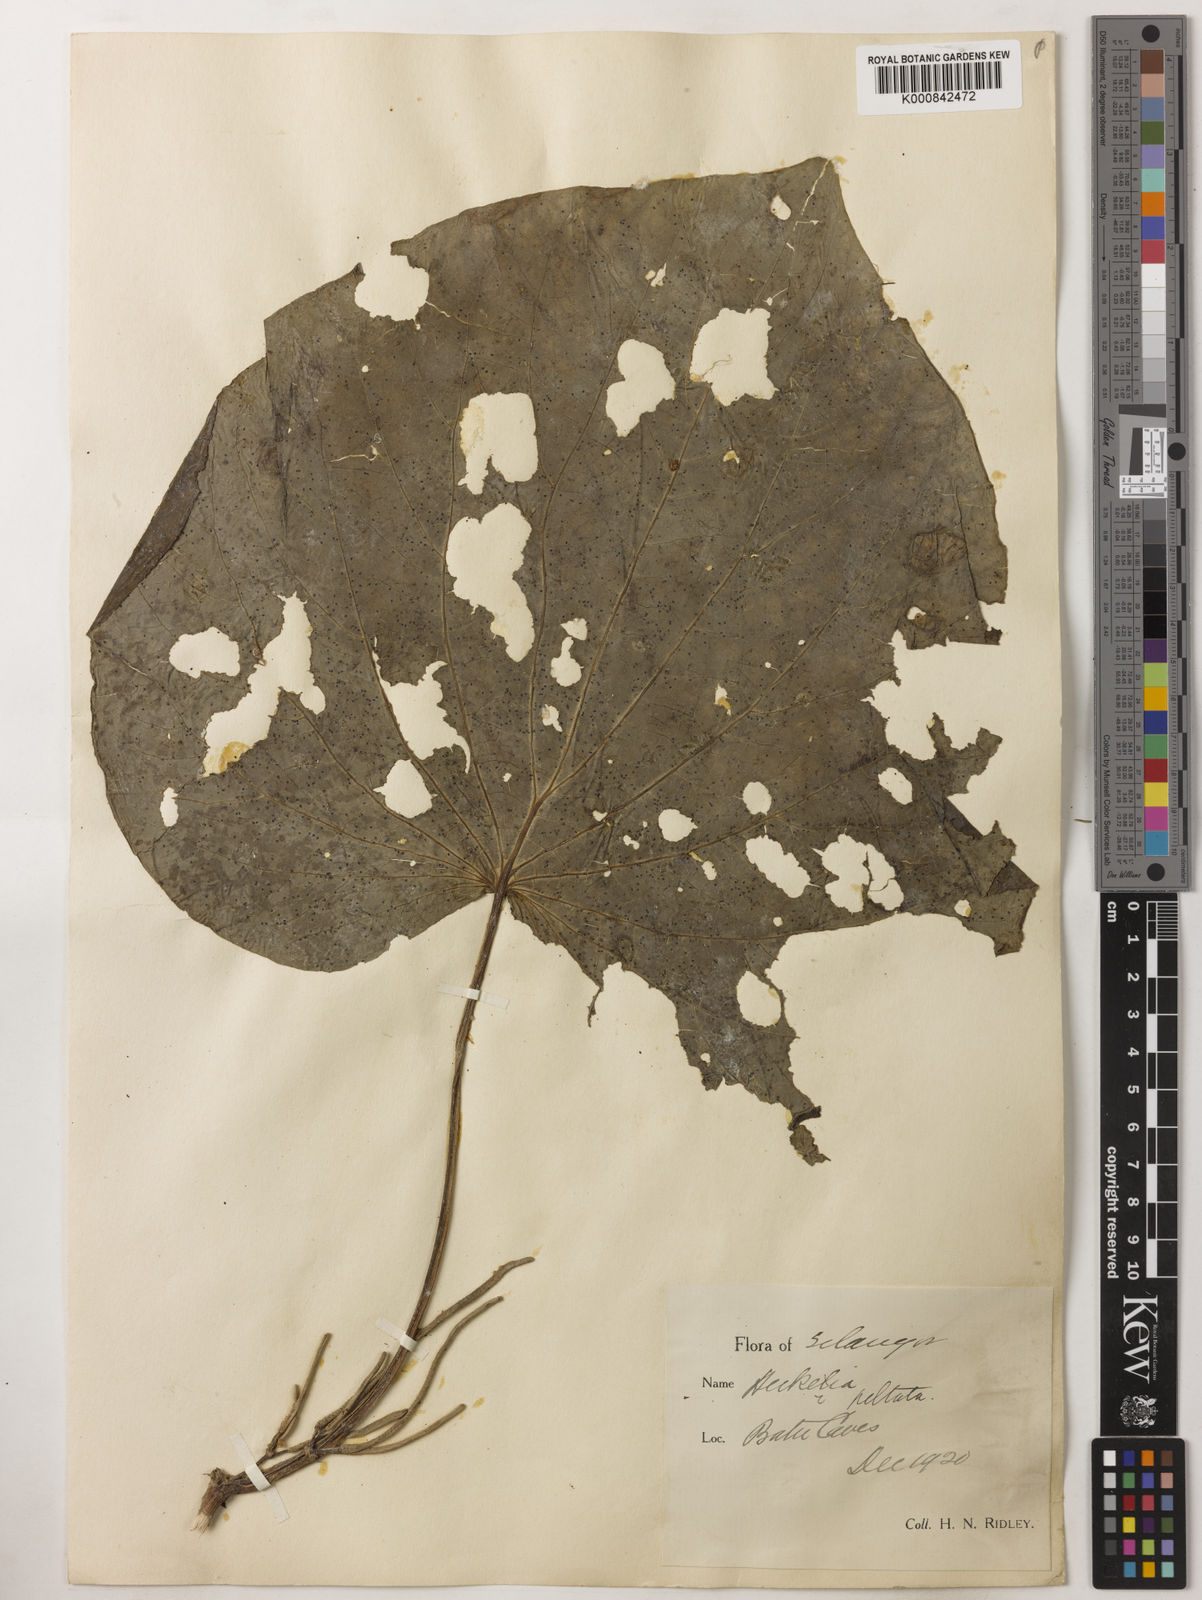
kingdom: Plantae
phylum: Tracheophyta
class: Magnoliopsida
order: Piperales
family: Piperaceae
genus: Piper
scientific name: Piper umbellatum
